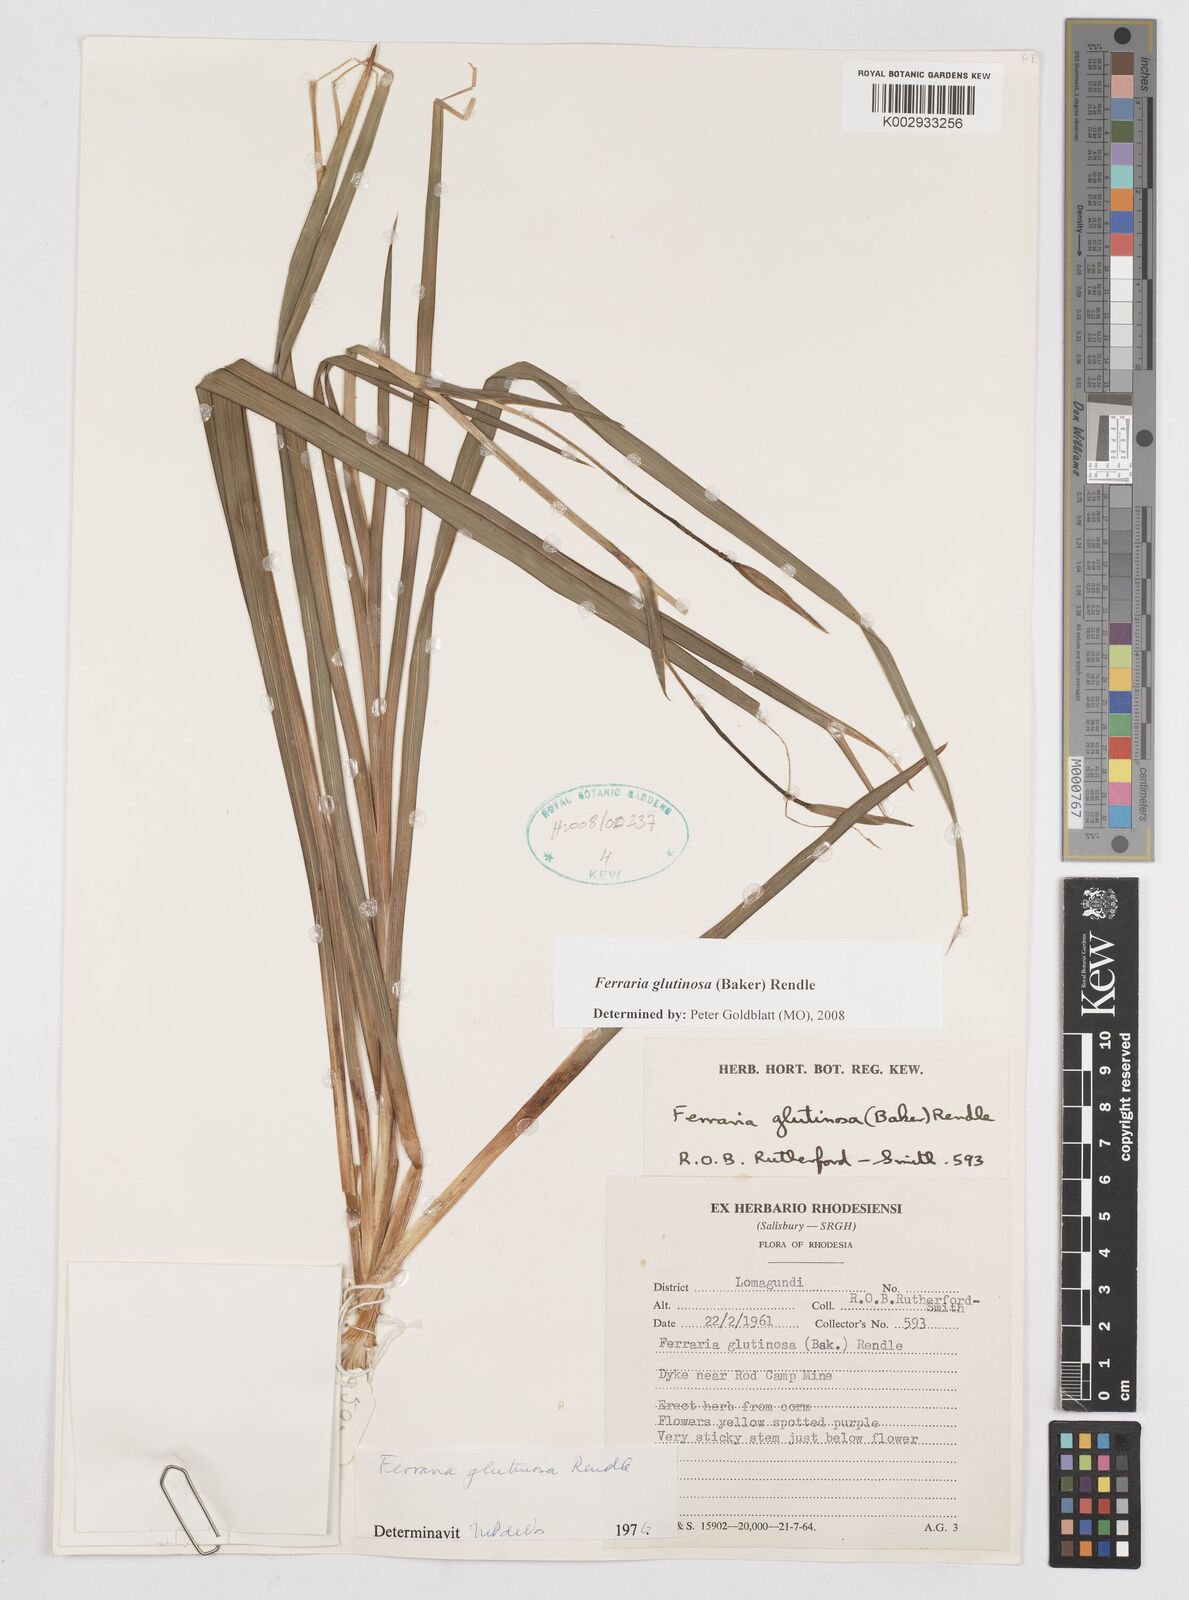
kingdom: Plantae
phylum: Tracheophyta
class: Liliopsida
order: Asparagales
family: Iridaceae
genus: Ferraria
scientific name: Ferraria glutinosa
